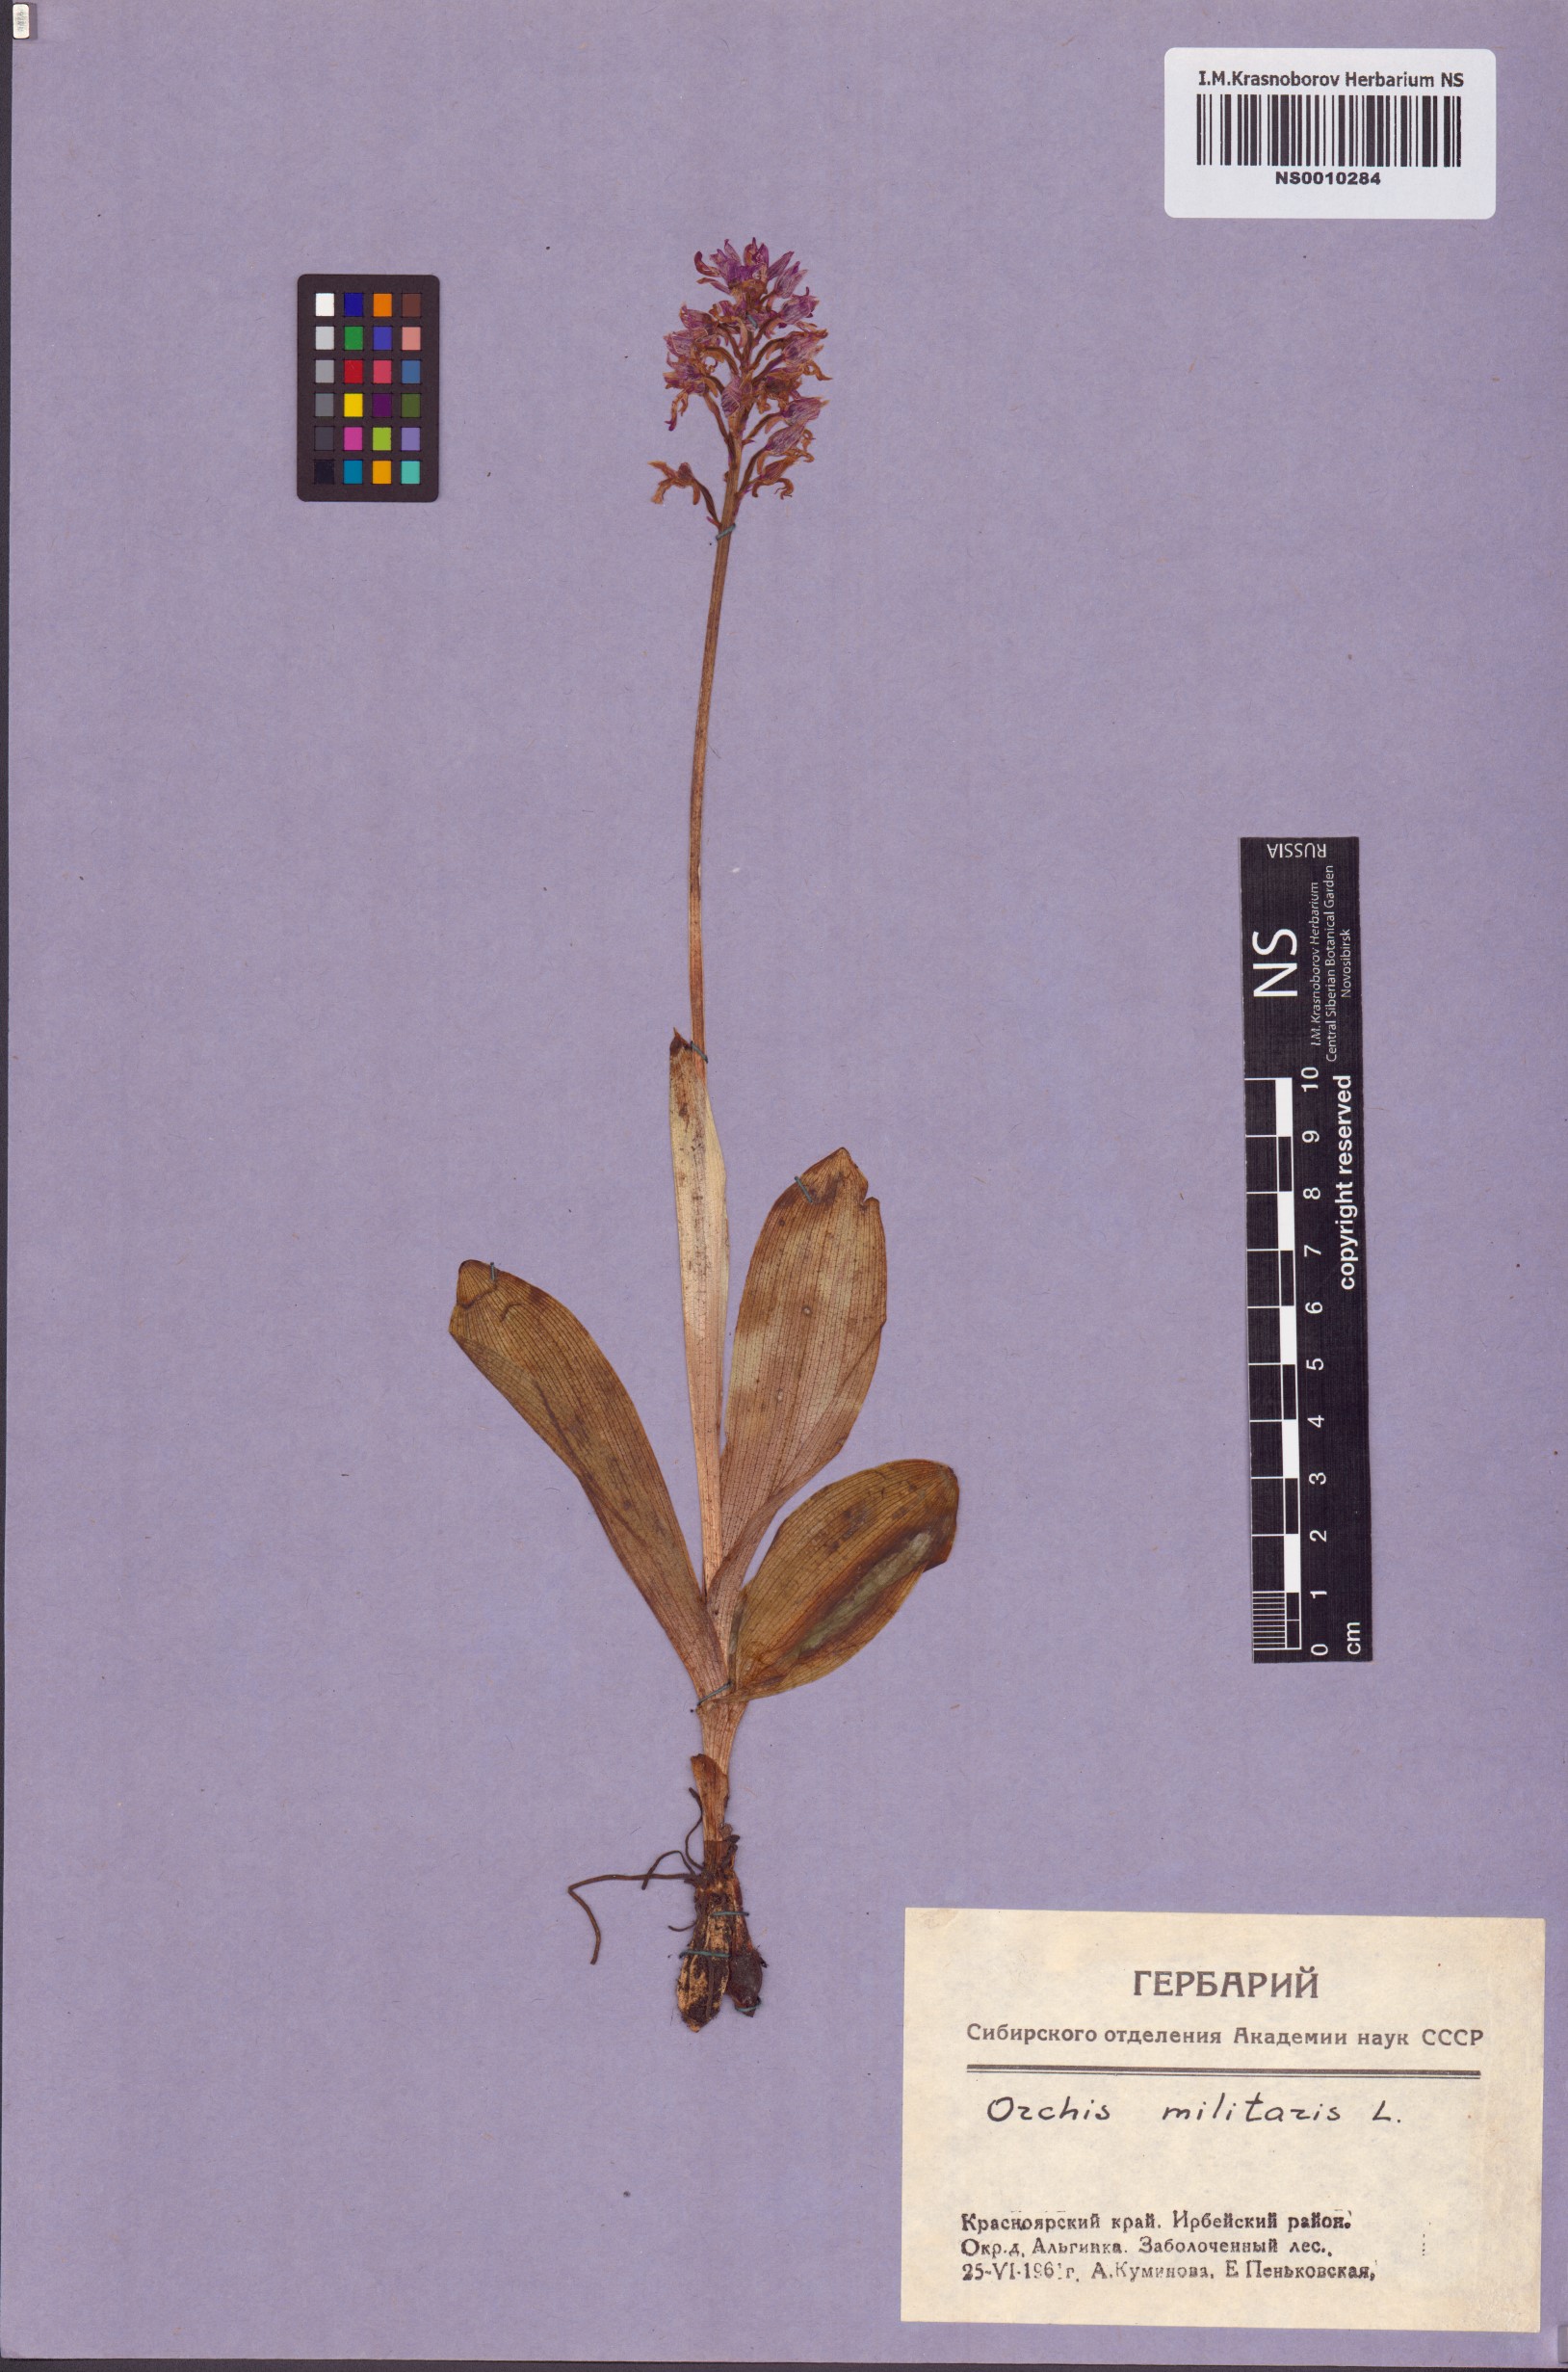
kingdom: Plantae
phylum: Tracheophyta
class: Liliopsida
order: Asparagales
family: Orchidaceae
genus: Orchis
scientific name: Orchis militaris
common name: Military orchid
